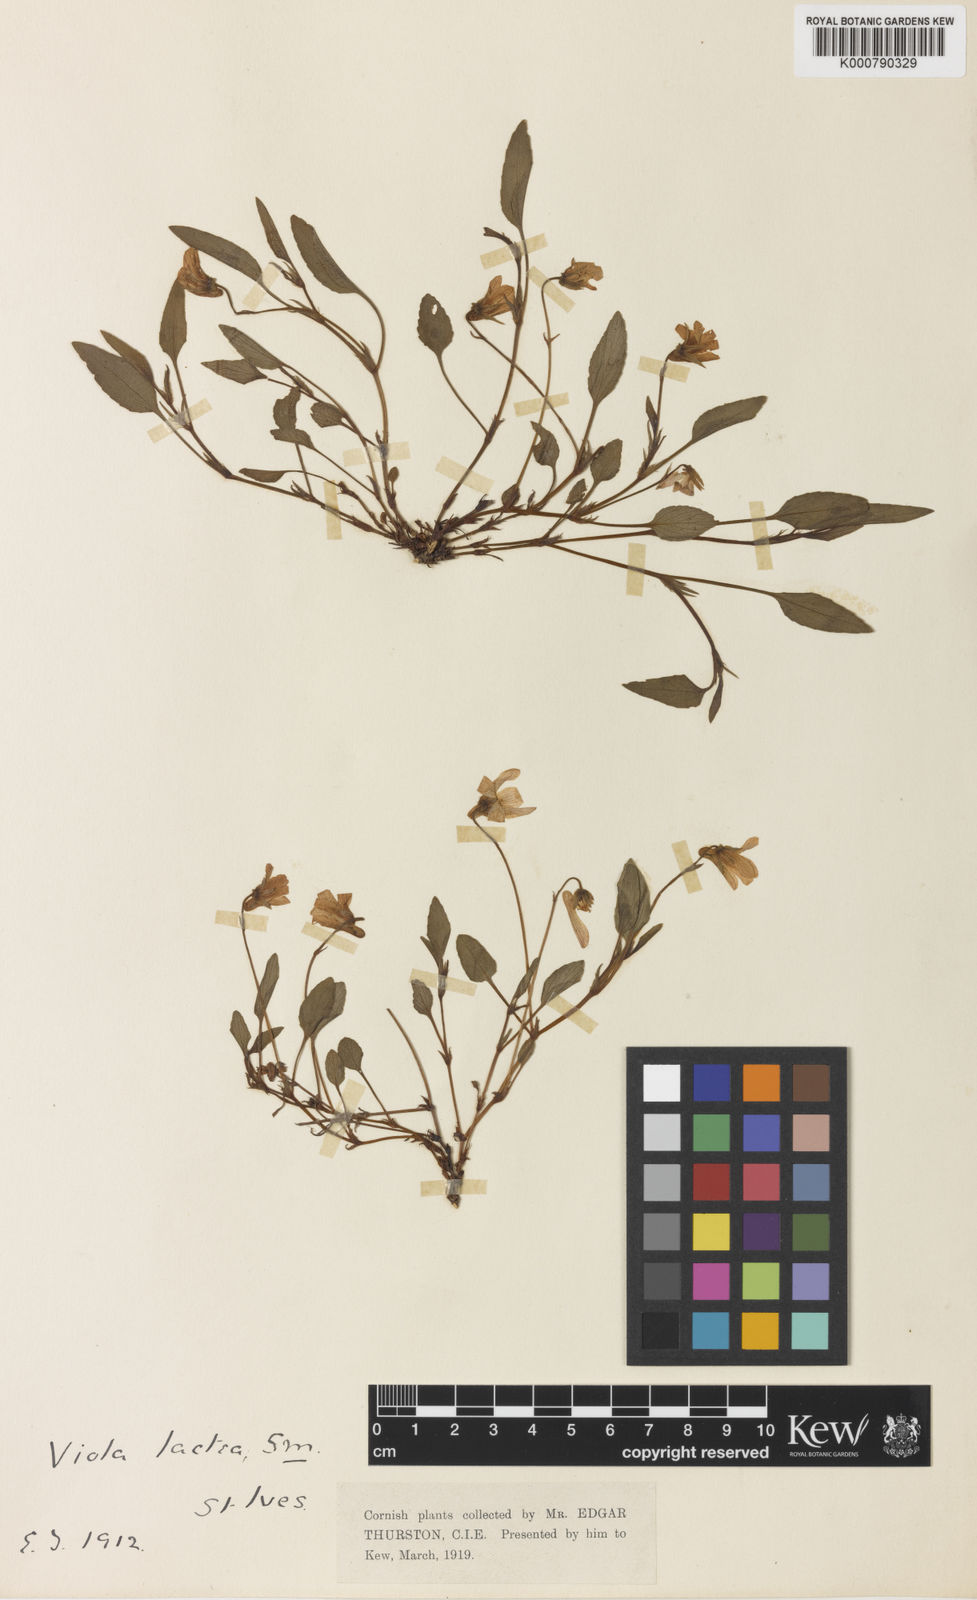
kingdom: Plantae
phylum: Tracheophyta
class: Magnoliopsida
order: Malpighiales
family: Violaceae
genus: Viola
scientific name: Viola lactea
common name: Pale dog-violet
